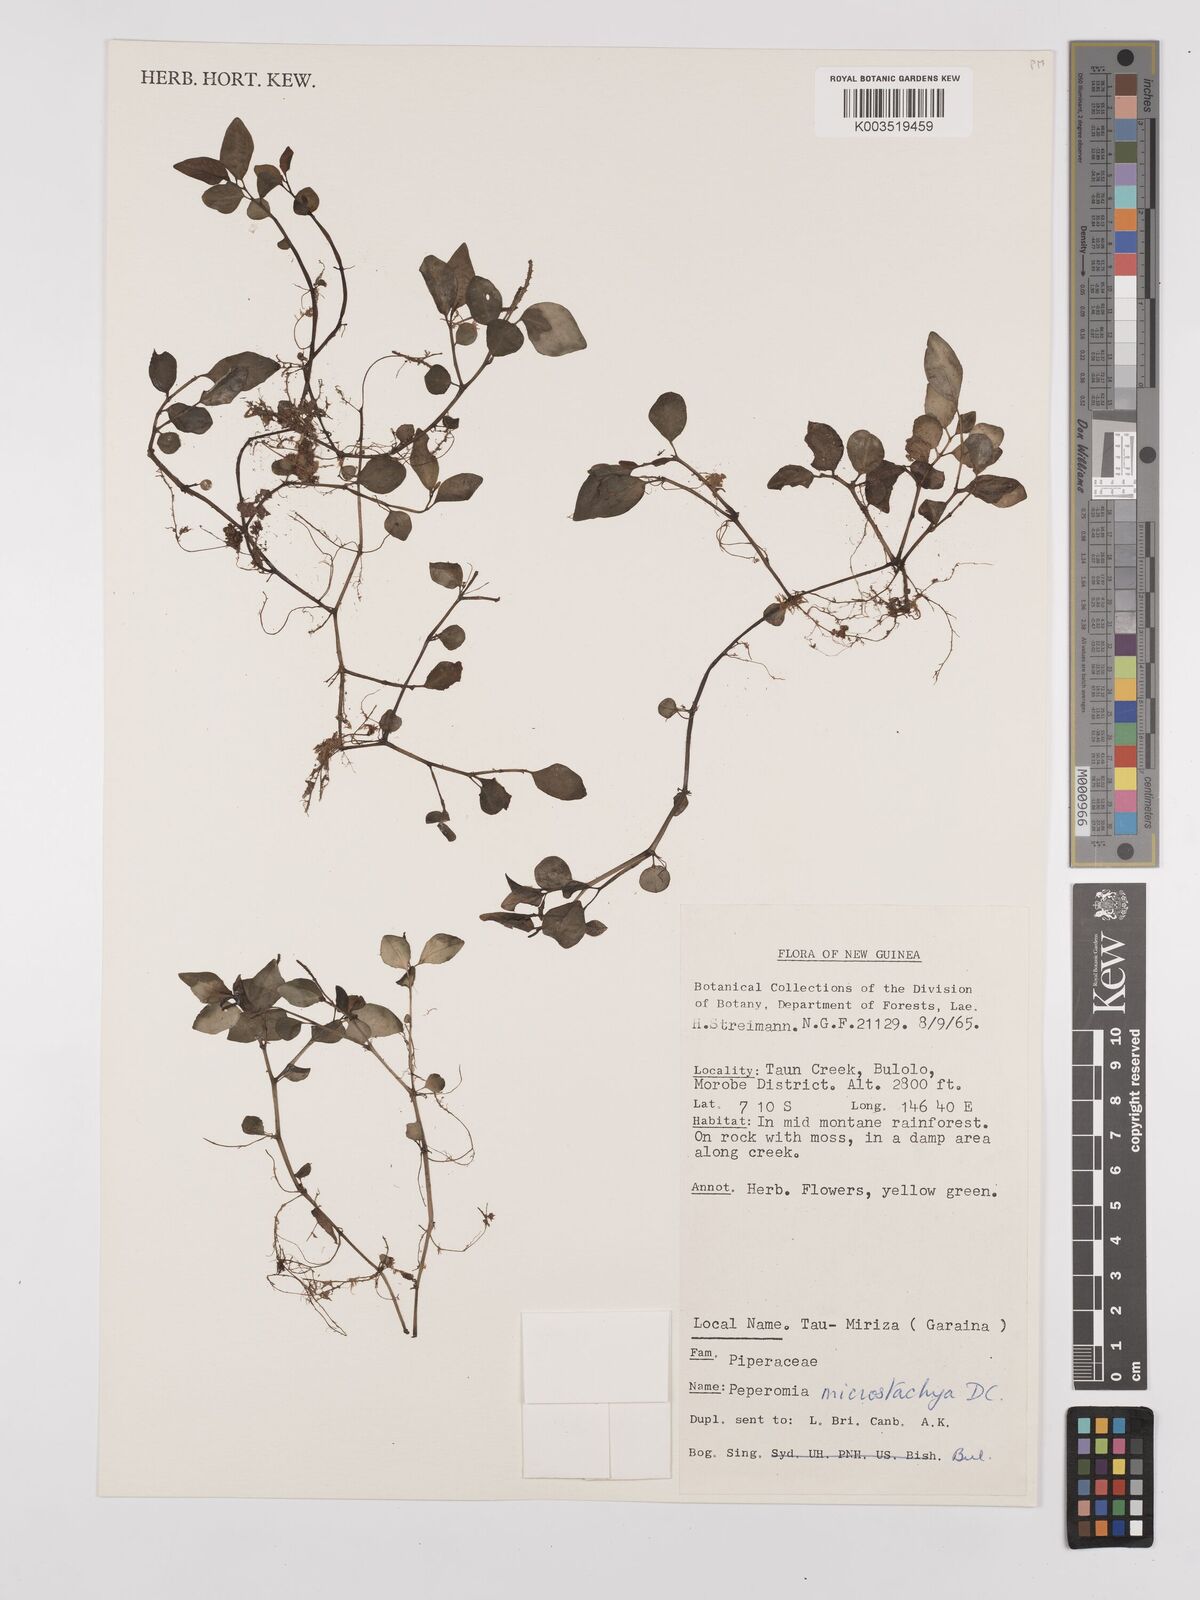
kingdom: Plantae
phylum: Tracheophyta
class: Magnoliopsida
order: Piperales
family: Piperaceae
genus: Peperomia
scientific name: Peperomia microstachya
